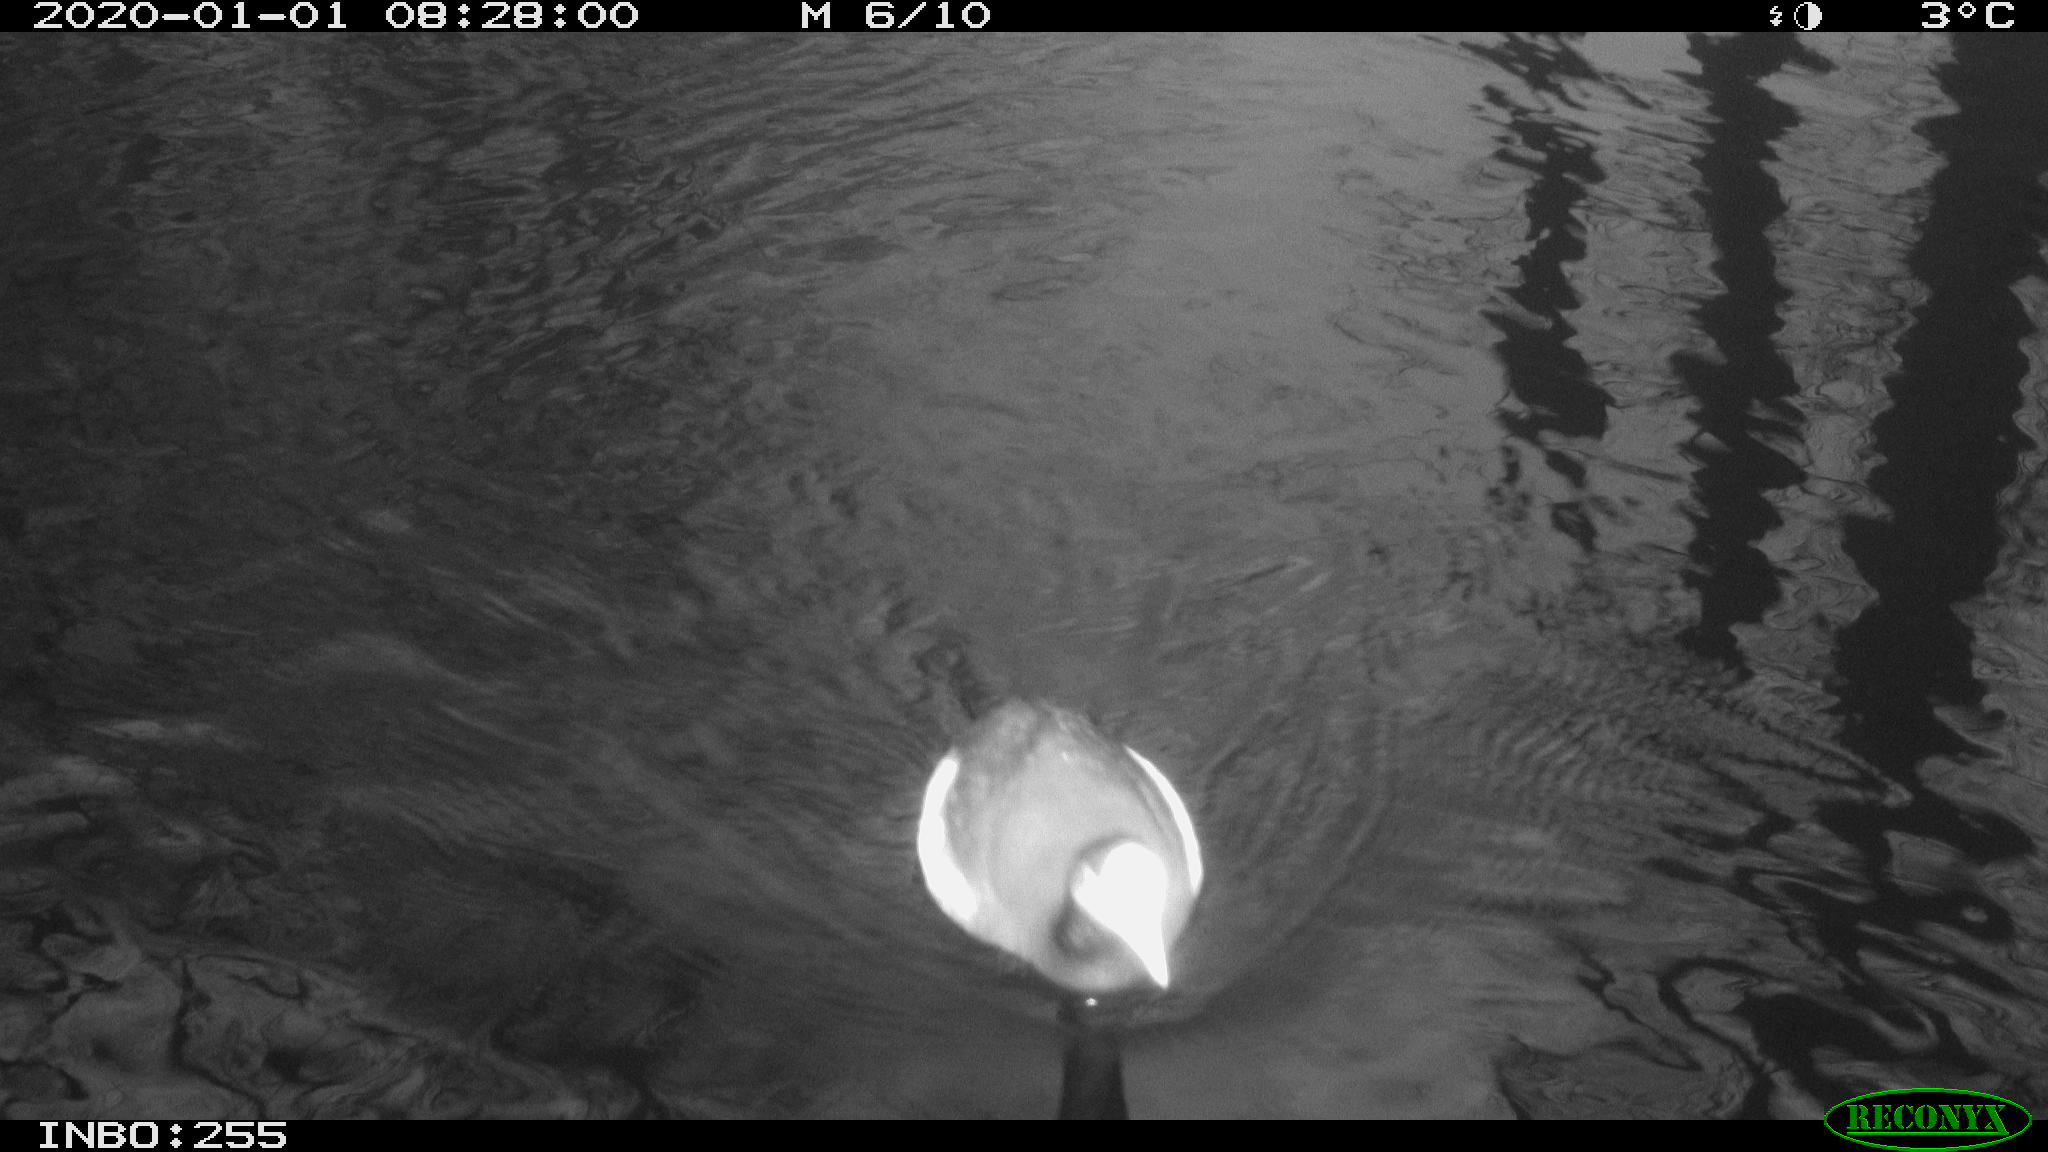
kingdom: Animalia
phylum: Chordata
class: Aves
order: Gruiformes
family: Rallidae
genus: Fulica
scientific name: Fulica atra
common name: Eurasian coot
